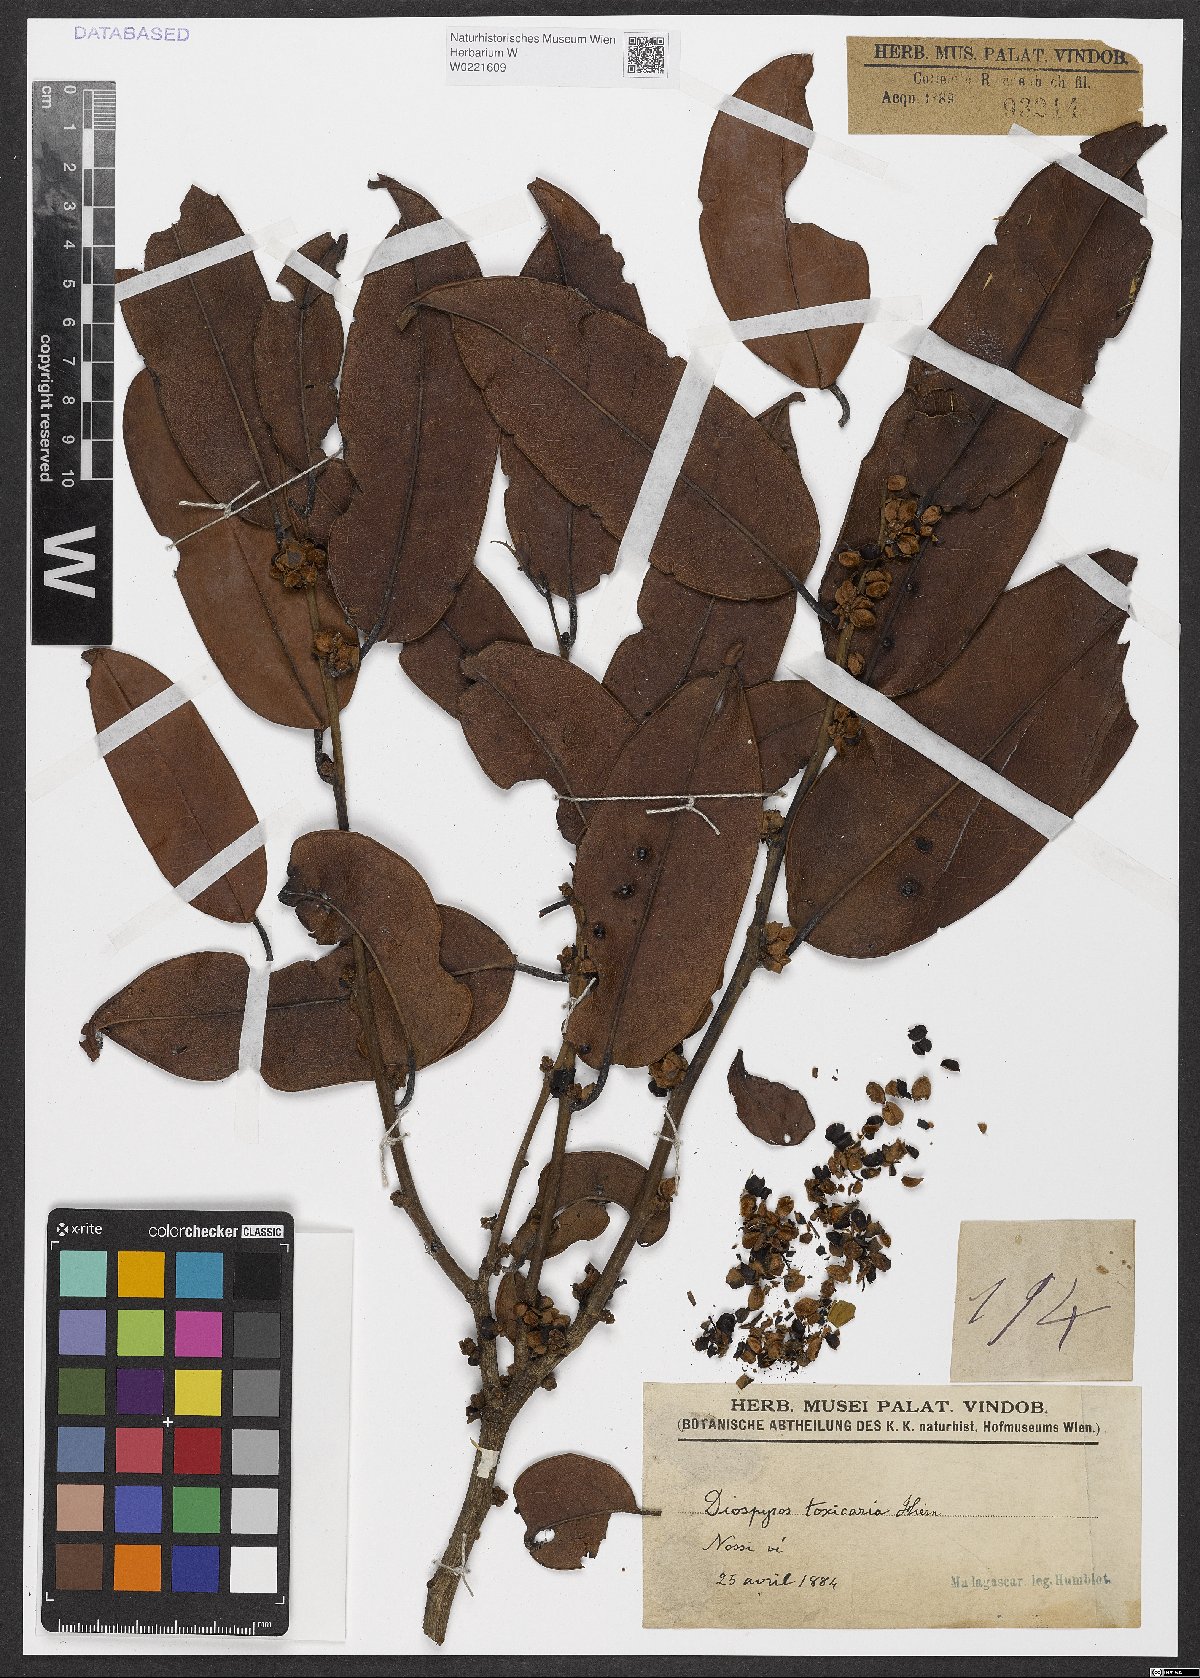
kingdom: Plantae
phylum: Tracheophyta
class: Magnoliopsida
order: Ericales
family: Ebenaceae
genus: Diospyros
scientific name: Diospyros toxicaria
